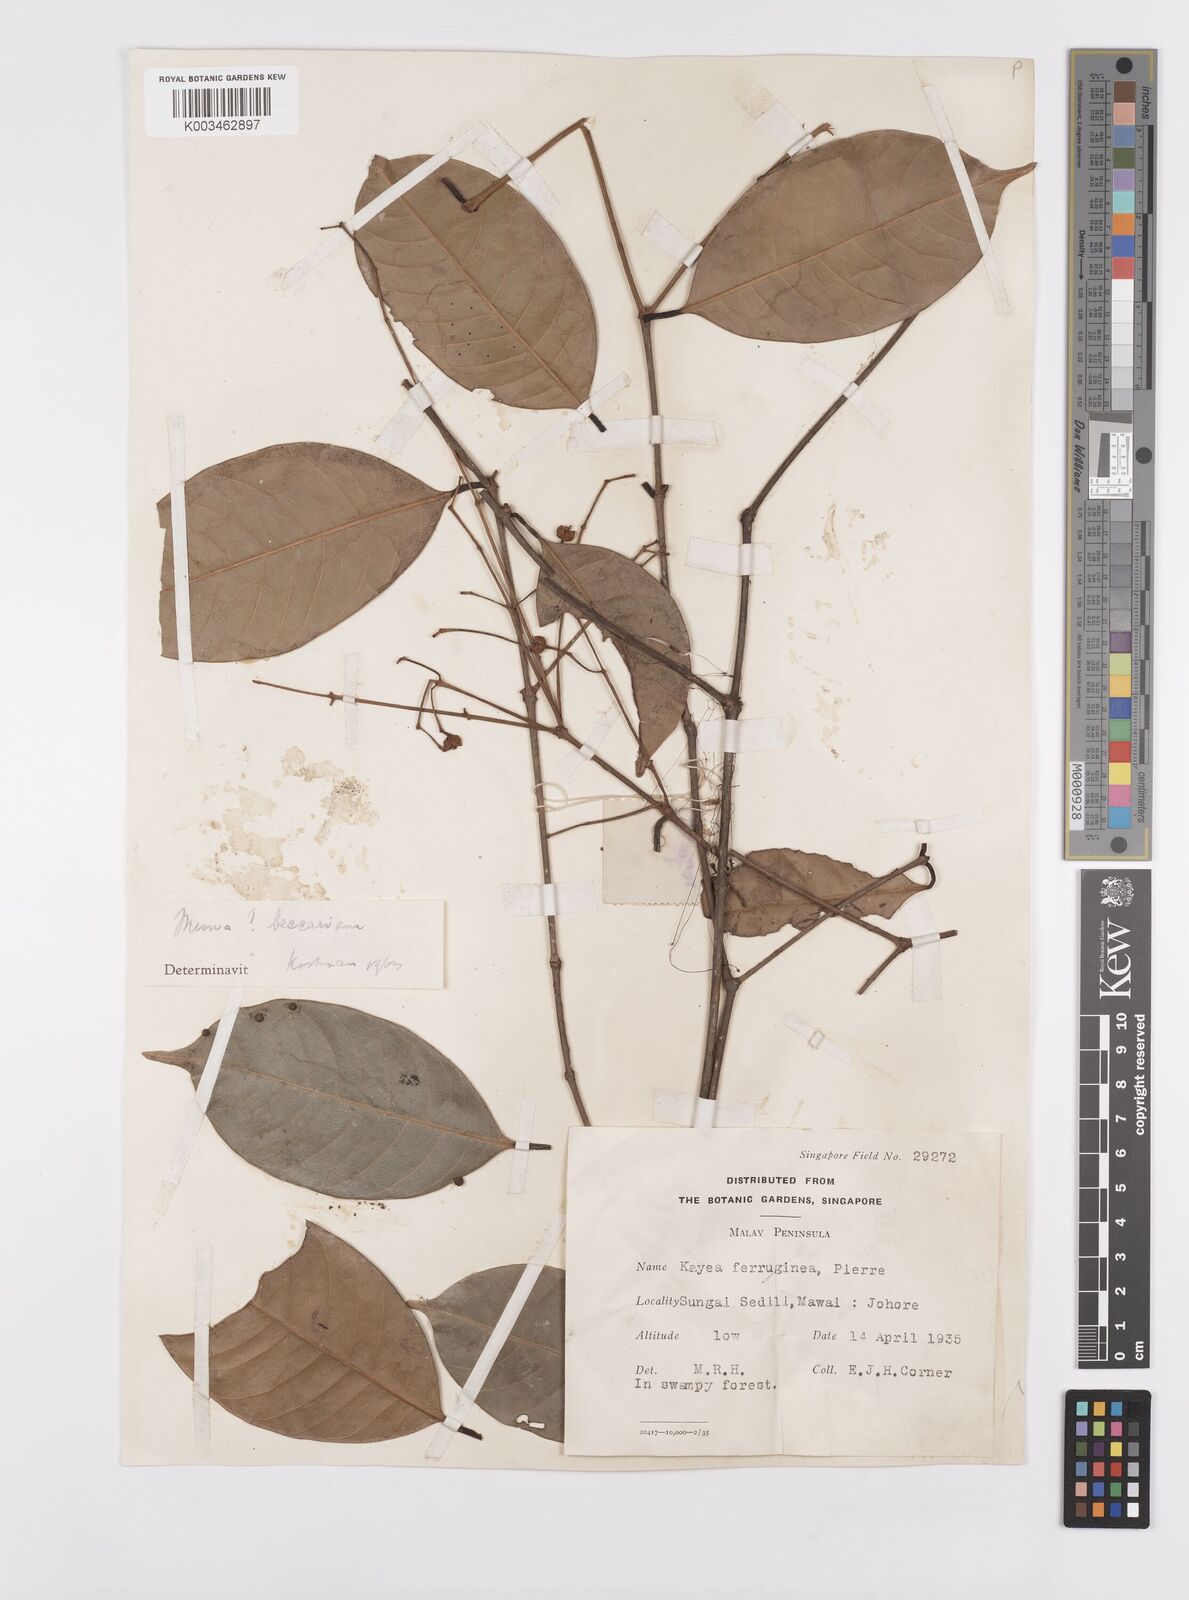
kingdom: Plantae
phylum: Tracheophyta
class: Magnoliopsida
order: Malpighiales
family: Calophyllaceae
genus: Kayea
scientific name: Kayea beccariana
